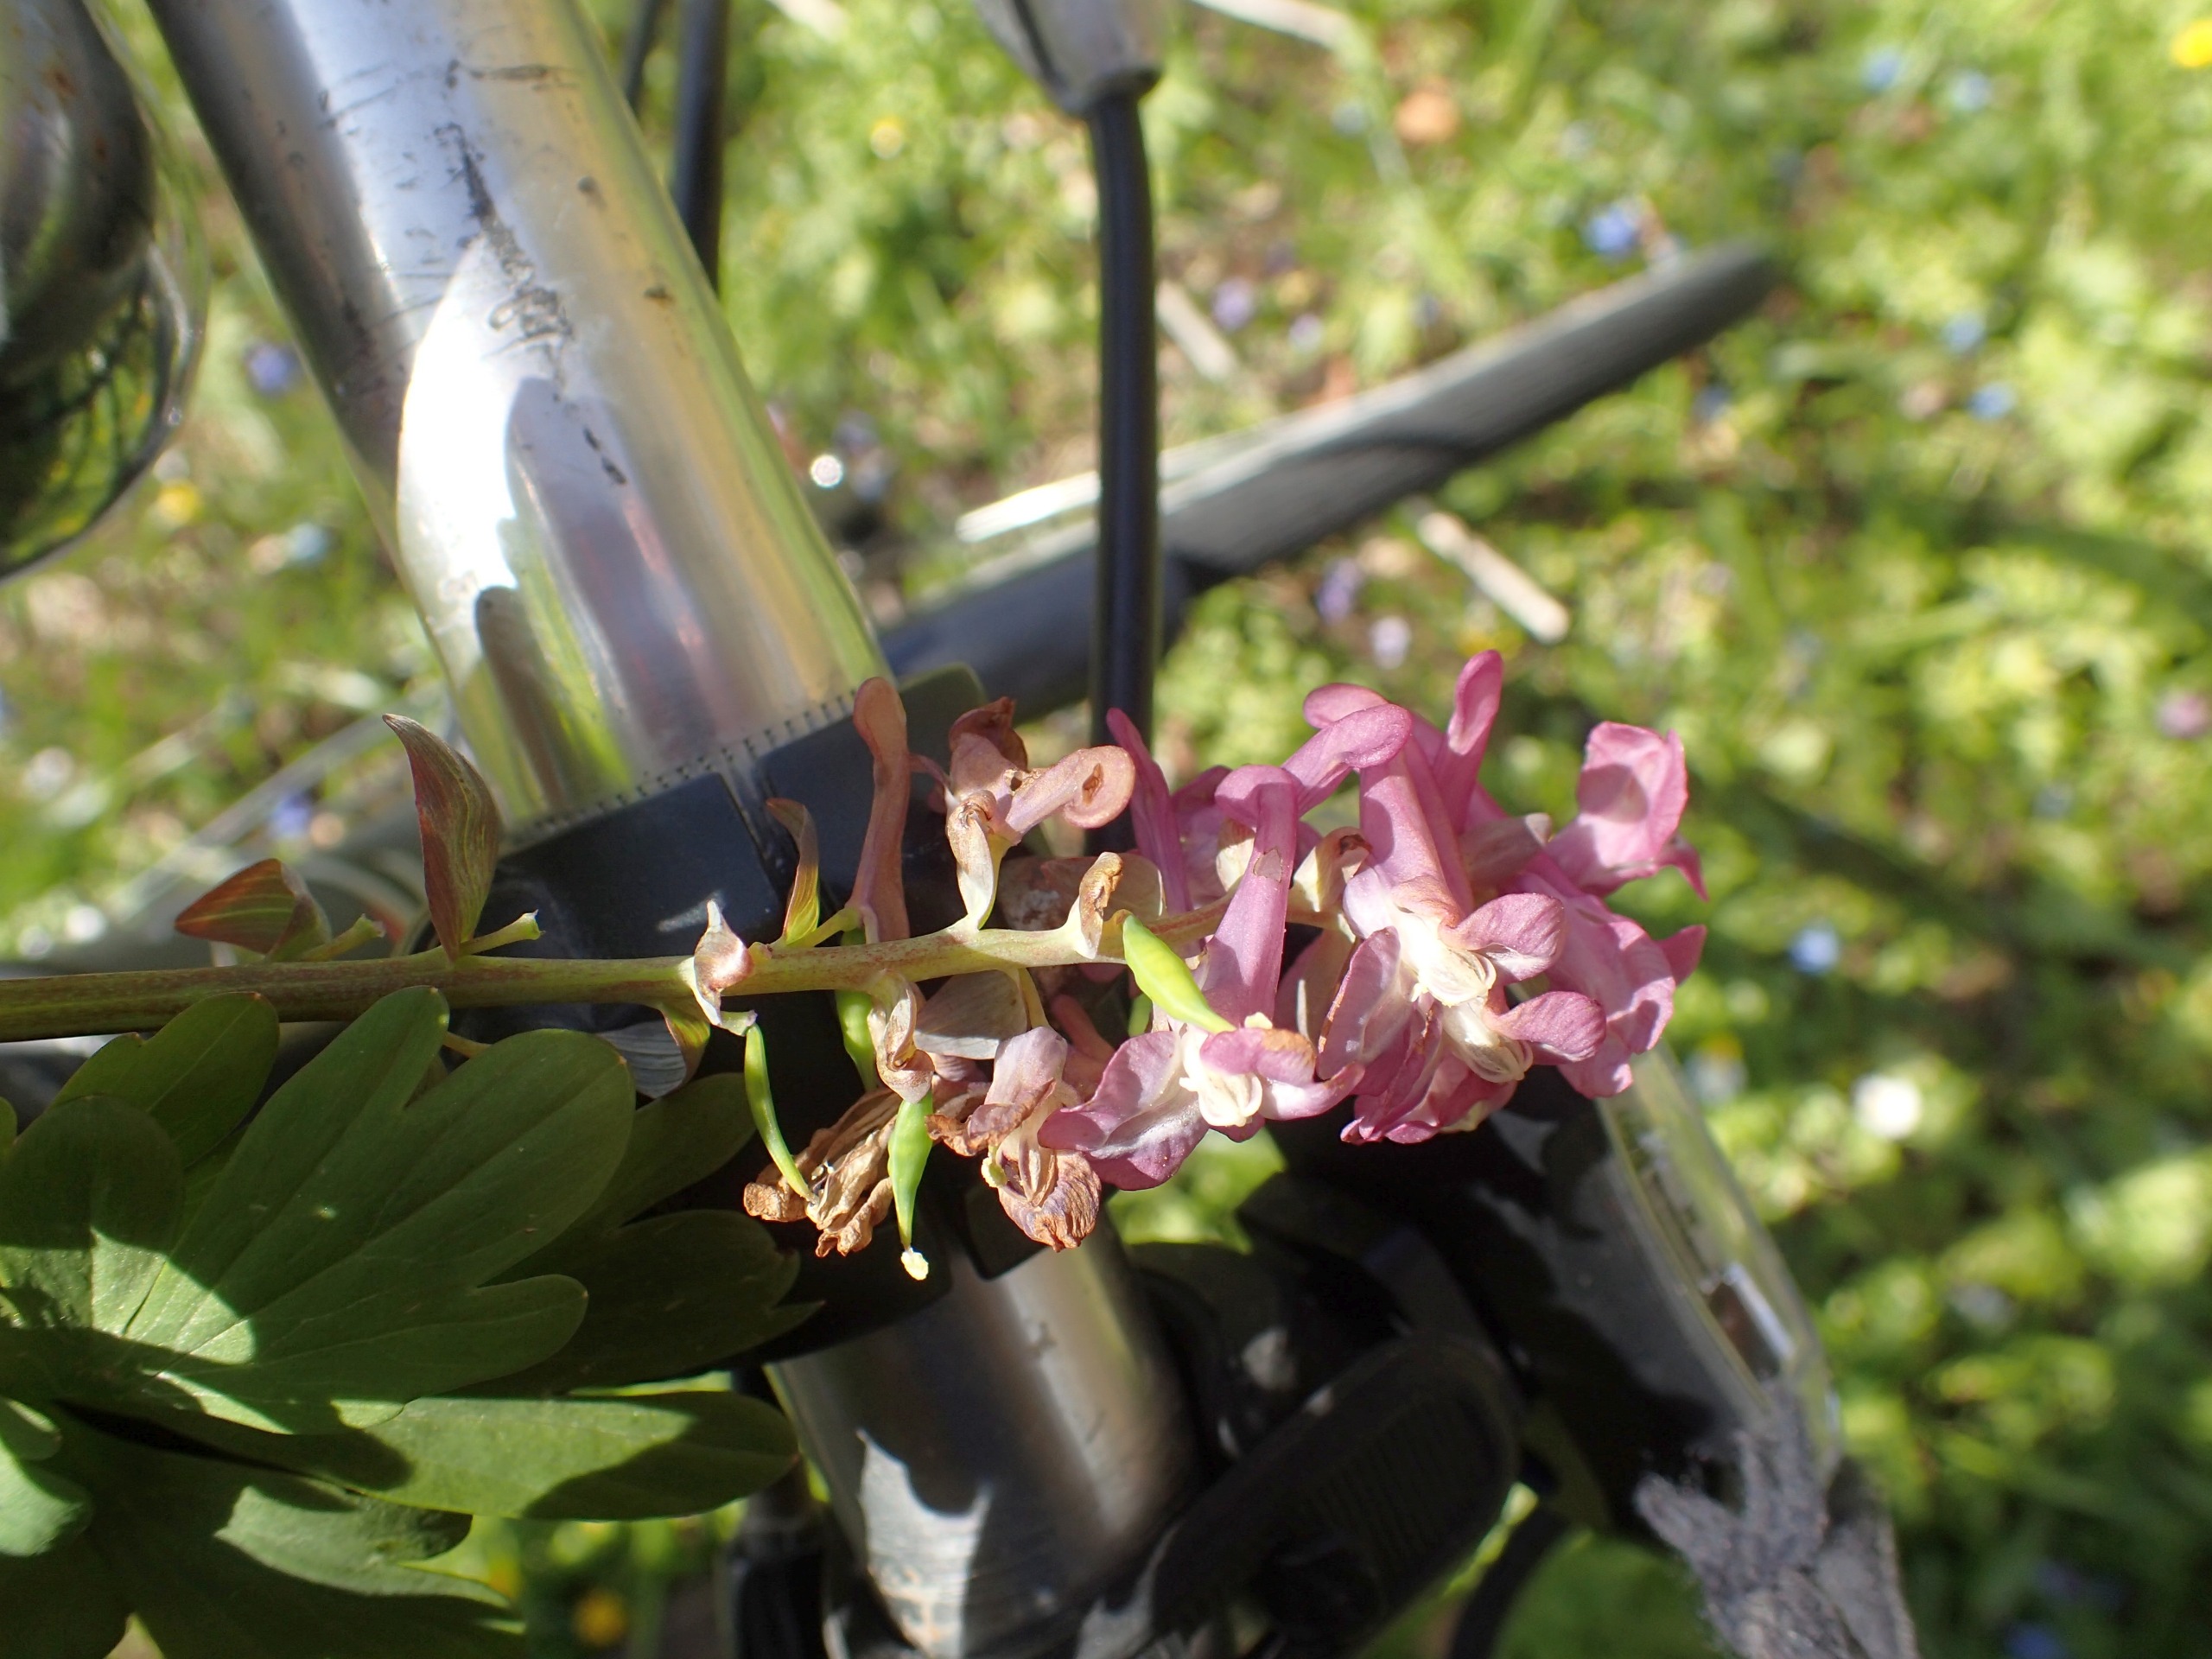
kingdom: Plantae
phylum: Tracheophyta
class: Magnoliopsida
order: Ranunculales
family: Papaveraceae
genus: Corydalis
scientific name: Corydalis cava
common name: Hulrodet lærkespore
